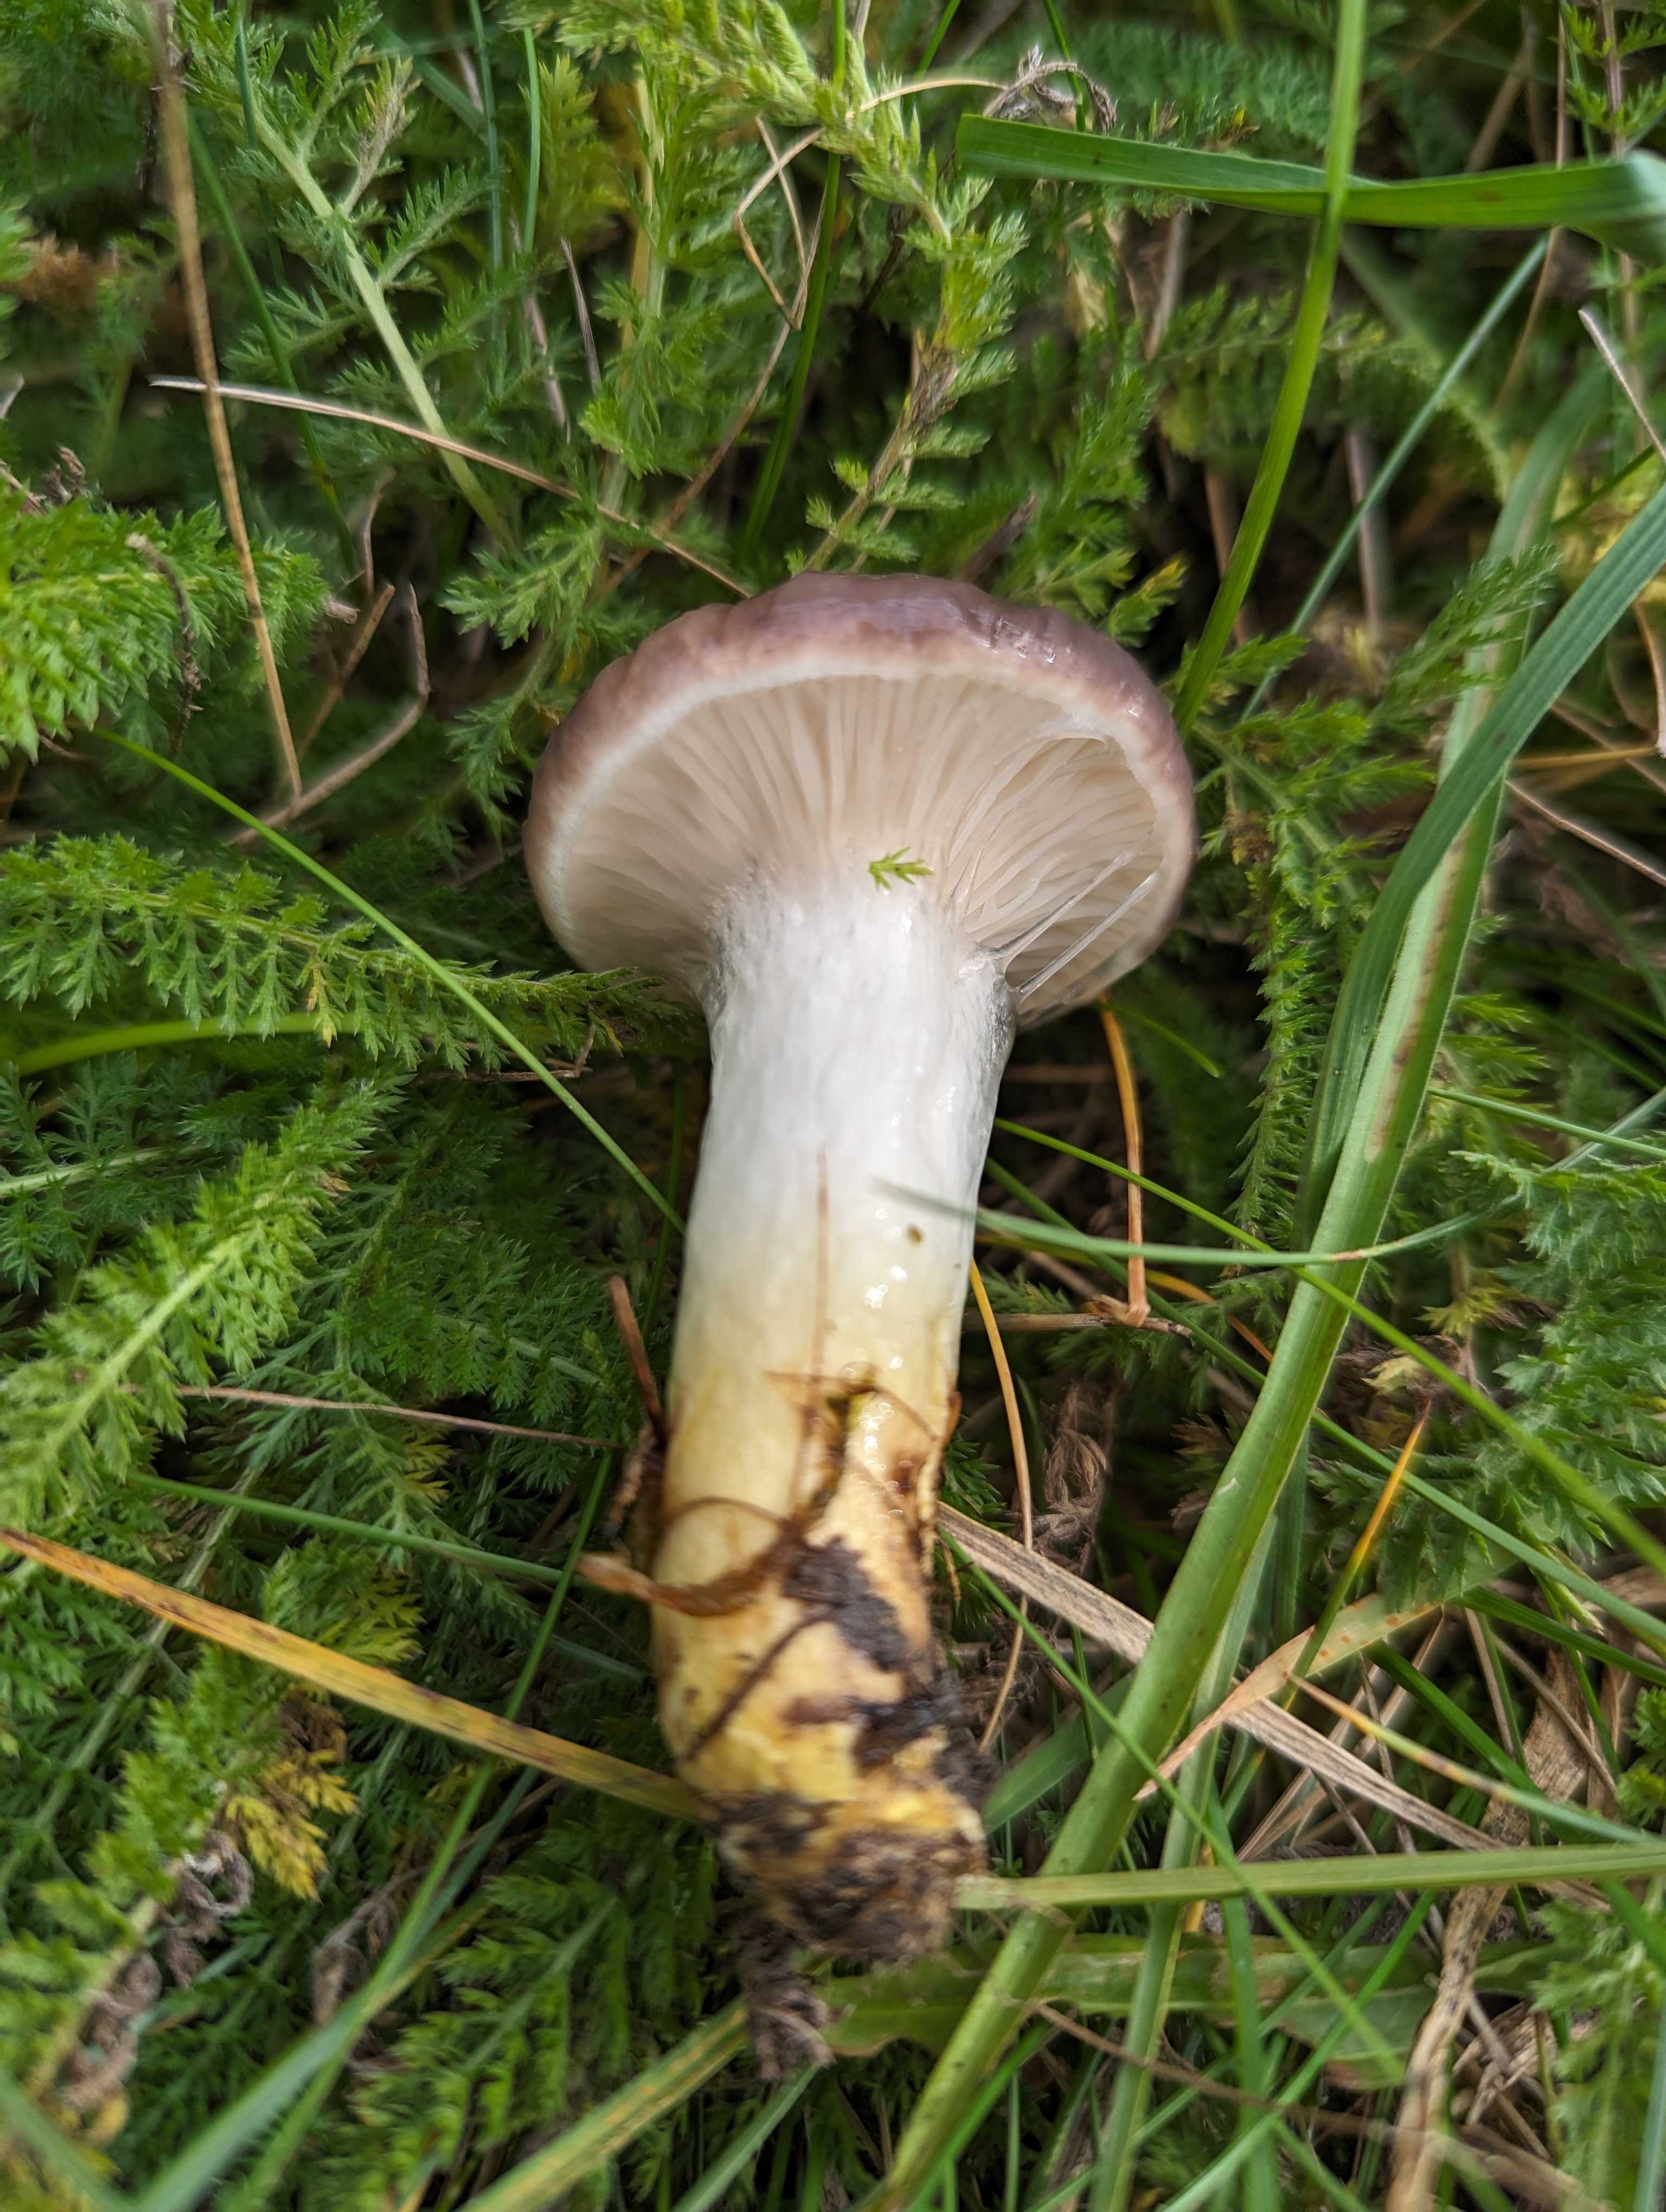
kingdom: Fungi
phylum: Basidiomycota
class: Agaricomycetes
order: Boletales
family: Gomphidiaceae
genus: Gomphidius
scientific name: Gomphidius glutinosus
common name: grå slimslør
